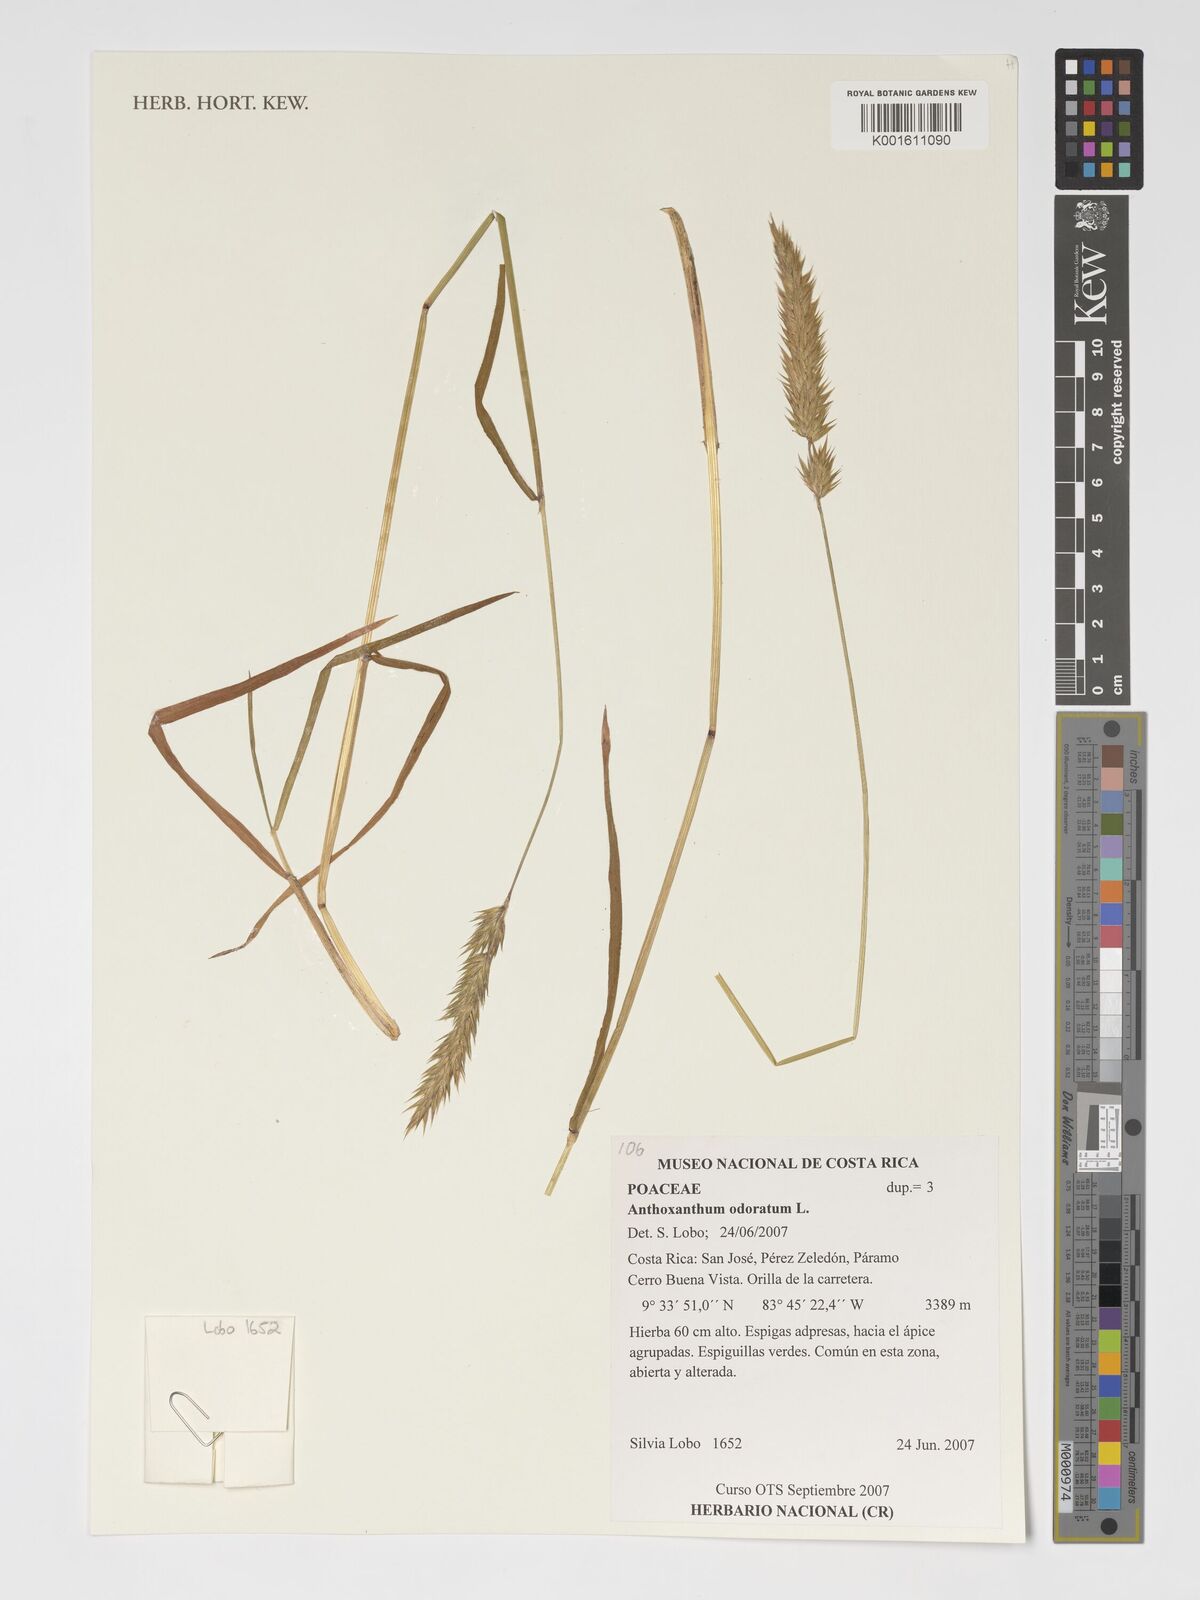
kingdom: Plantae
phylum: Tracheophyta
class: Liliopsida
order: Poales
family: Poaceae
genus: Anthoxanthum
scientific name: Anthoxanthum odoratum
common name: Sweet vernalgrass
